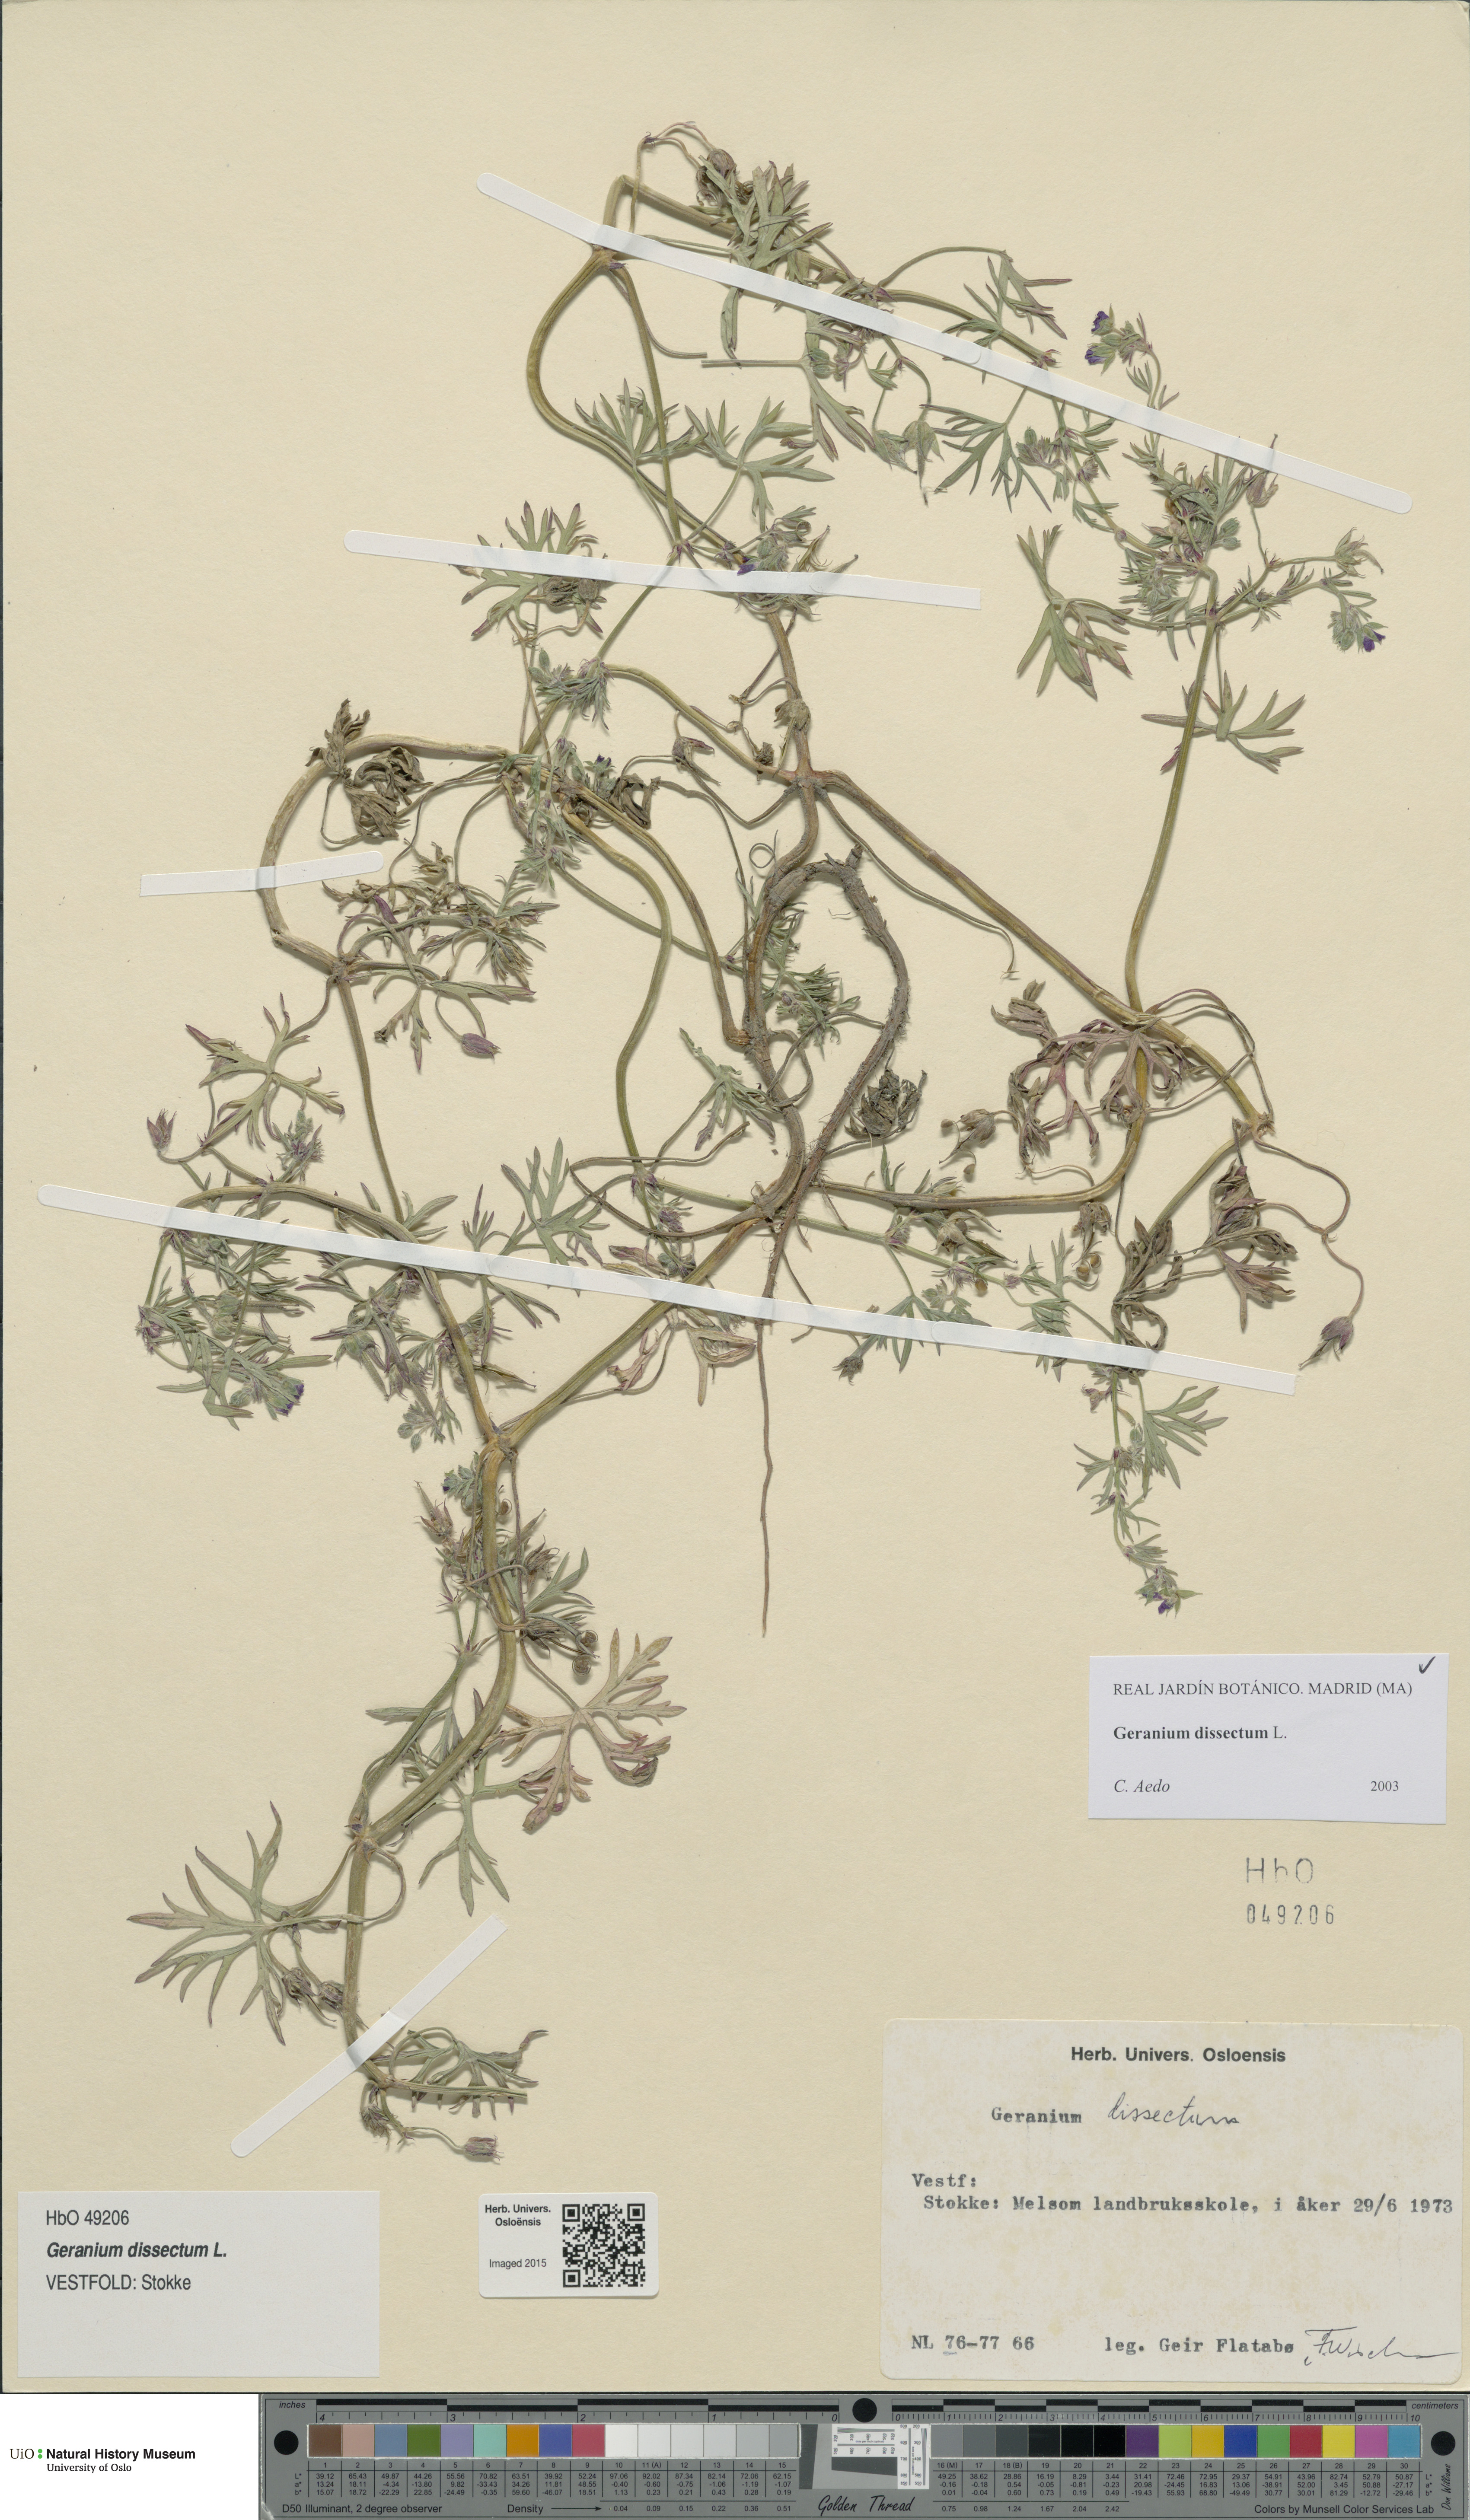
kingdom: Plantae
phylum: Tracheophyta
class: Magnoliopsida
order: Geraniales
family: Geraniaceae
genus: Geranium
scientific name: Geranium dissectum
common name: Cut-leaved crane's-bill
